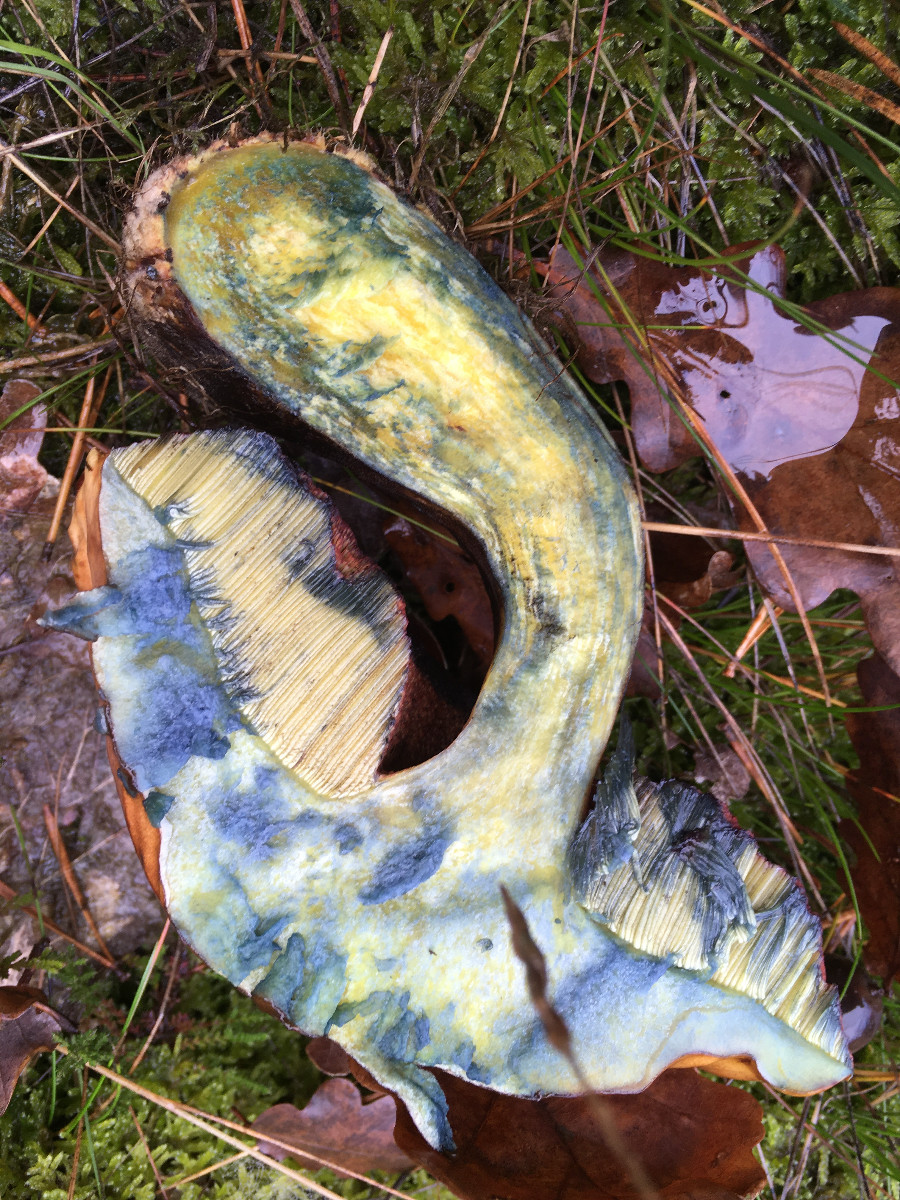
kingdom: Fungi
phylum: Basidiomycota
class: Agaricomycetes
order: Boletales
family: Boletaceae
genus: Suillellus
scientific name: Suillellus luridus
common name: netstokket indigorørhat
